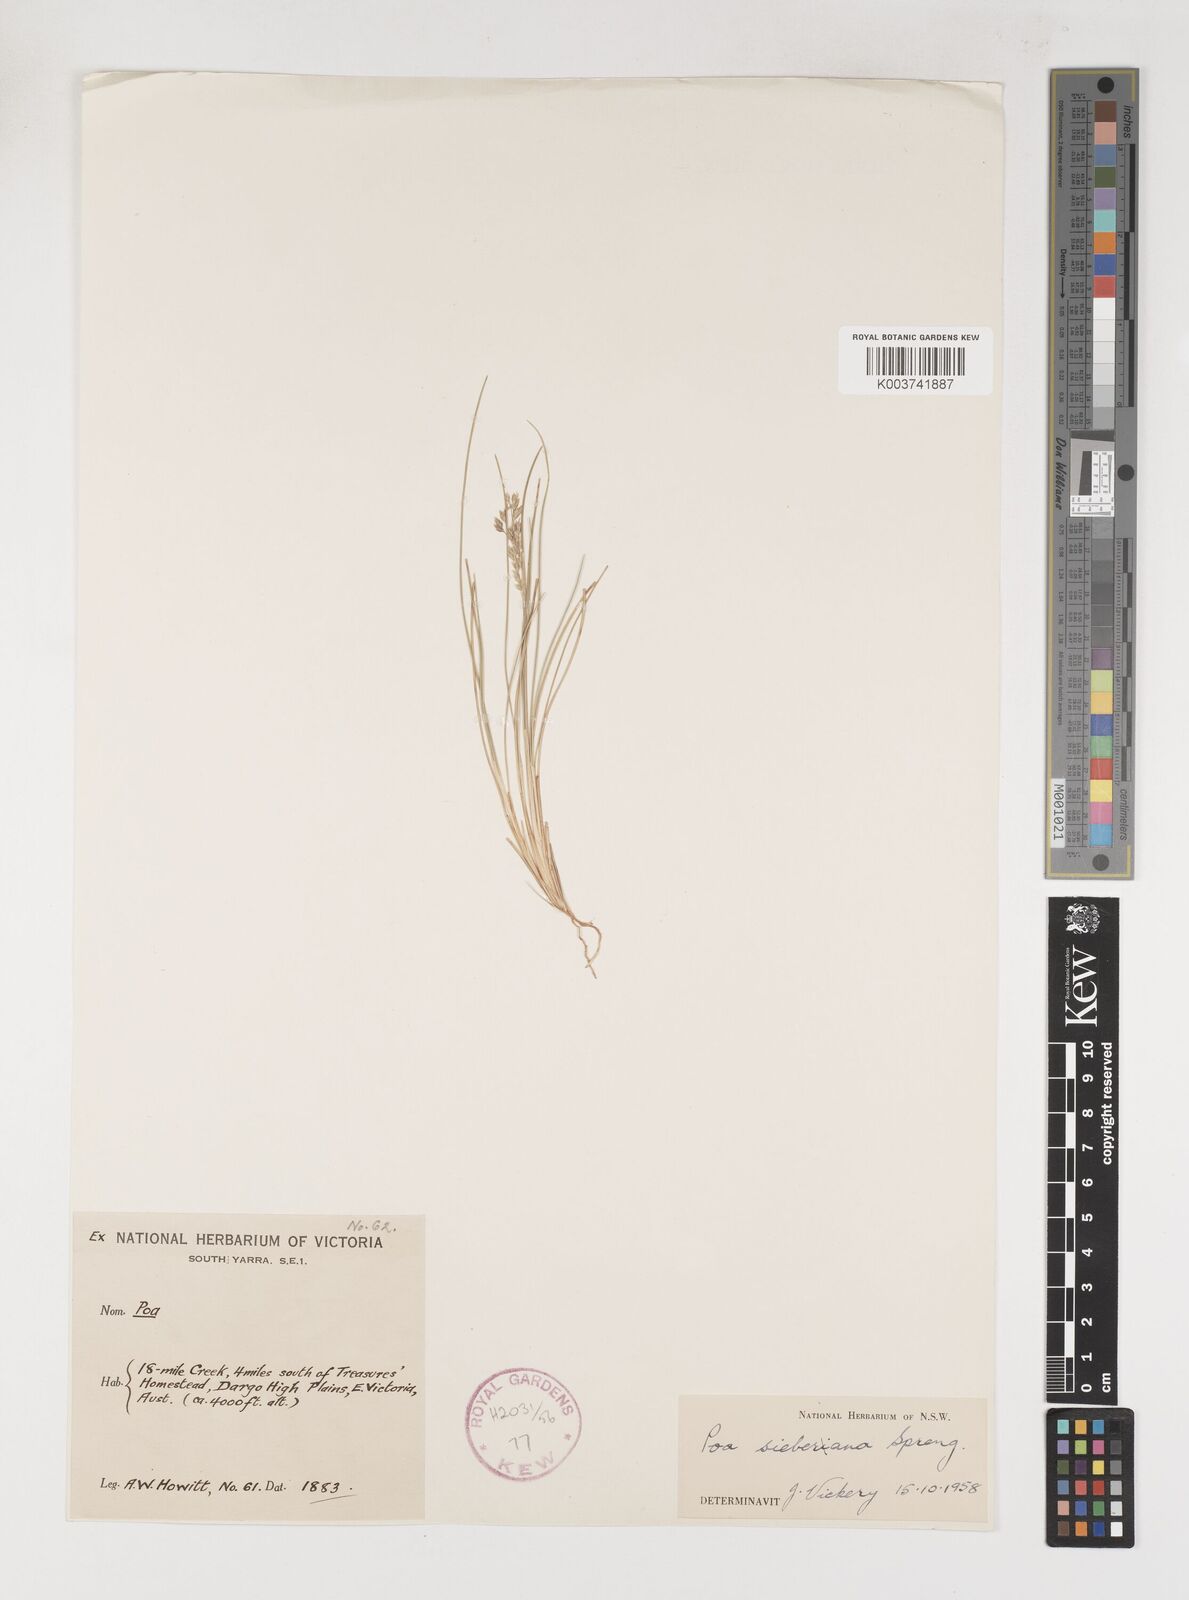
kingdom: Plantae
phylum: Tracheophyta
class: Liliopsida
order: Poales
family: Poaceae
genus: Poa
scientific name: Poa sieberiana
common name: Tussock poa
